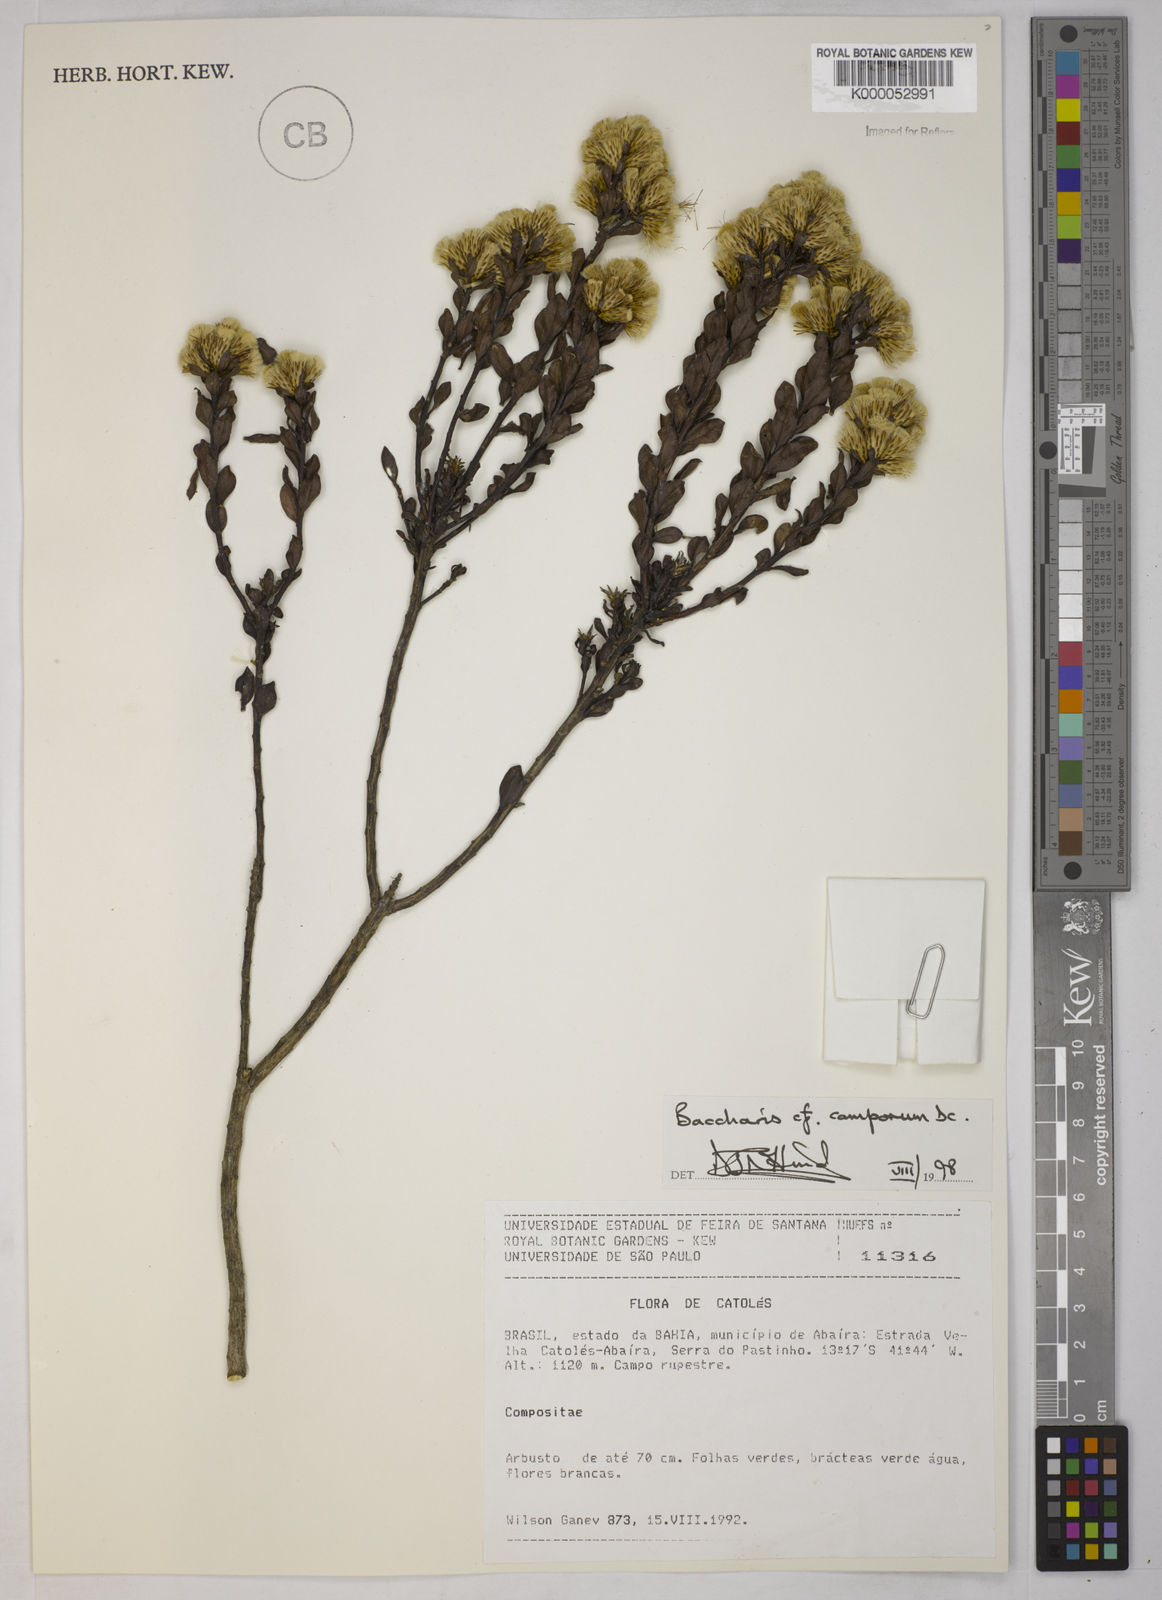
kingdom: Plantae
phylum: Tracheophyta
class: Magnoliopsida
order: Asterales
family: Asteraceae
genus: Baccharis
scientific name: Baccharis camporum
